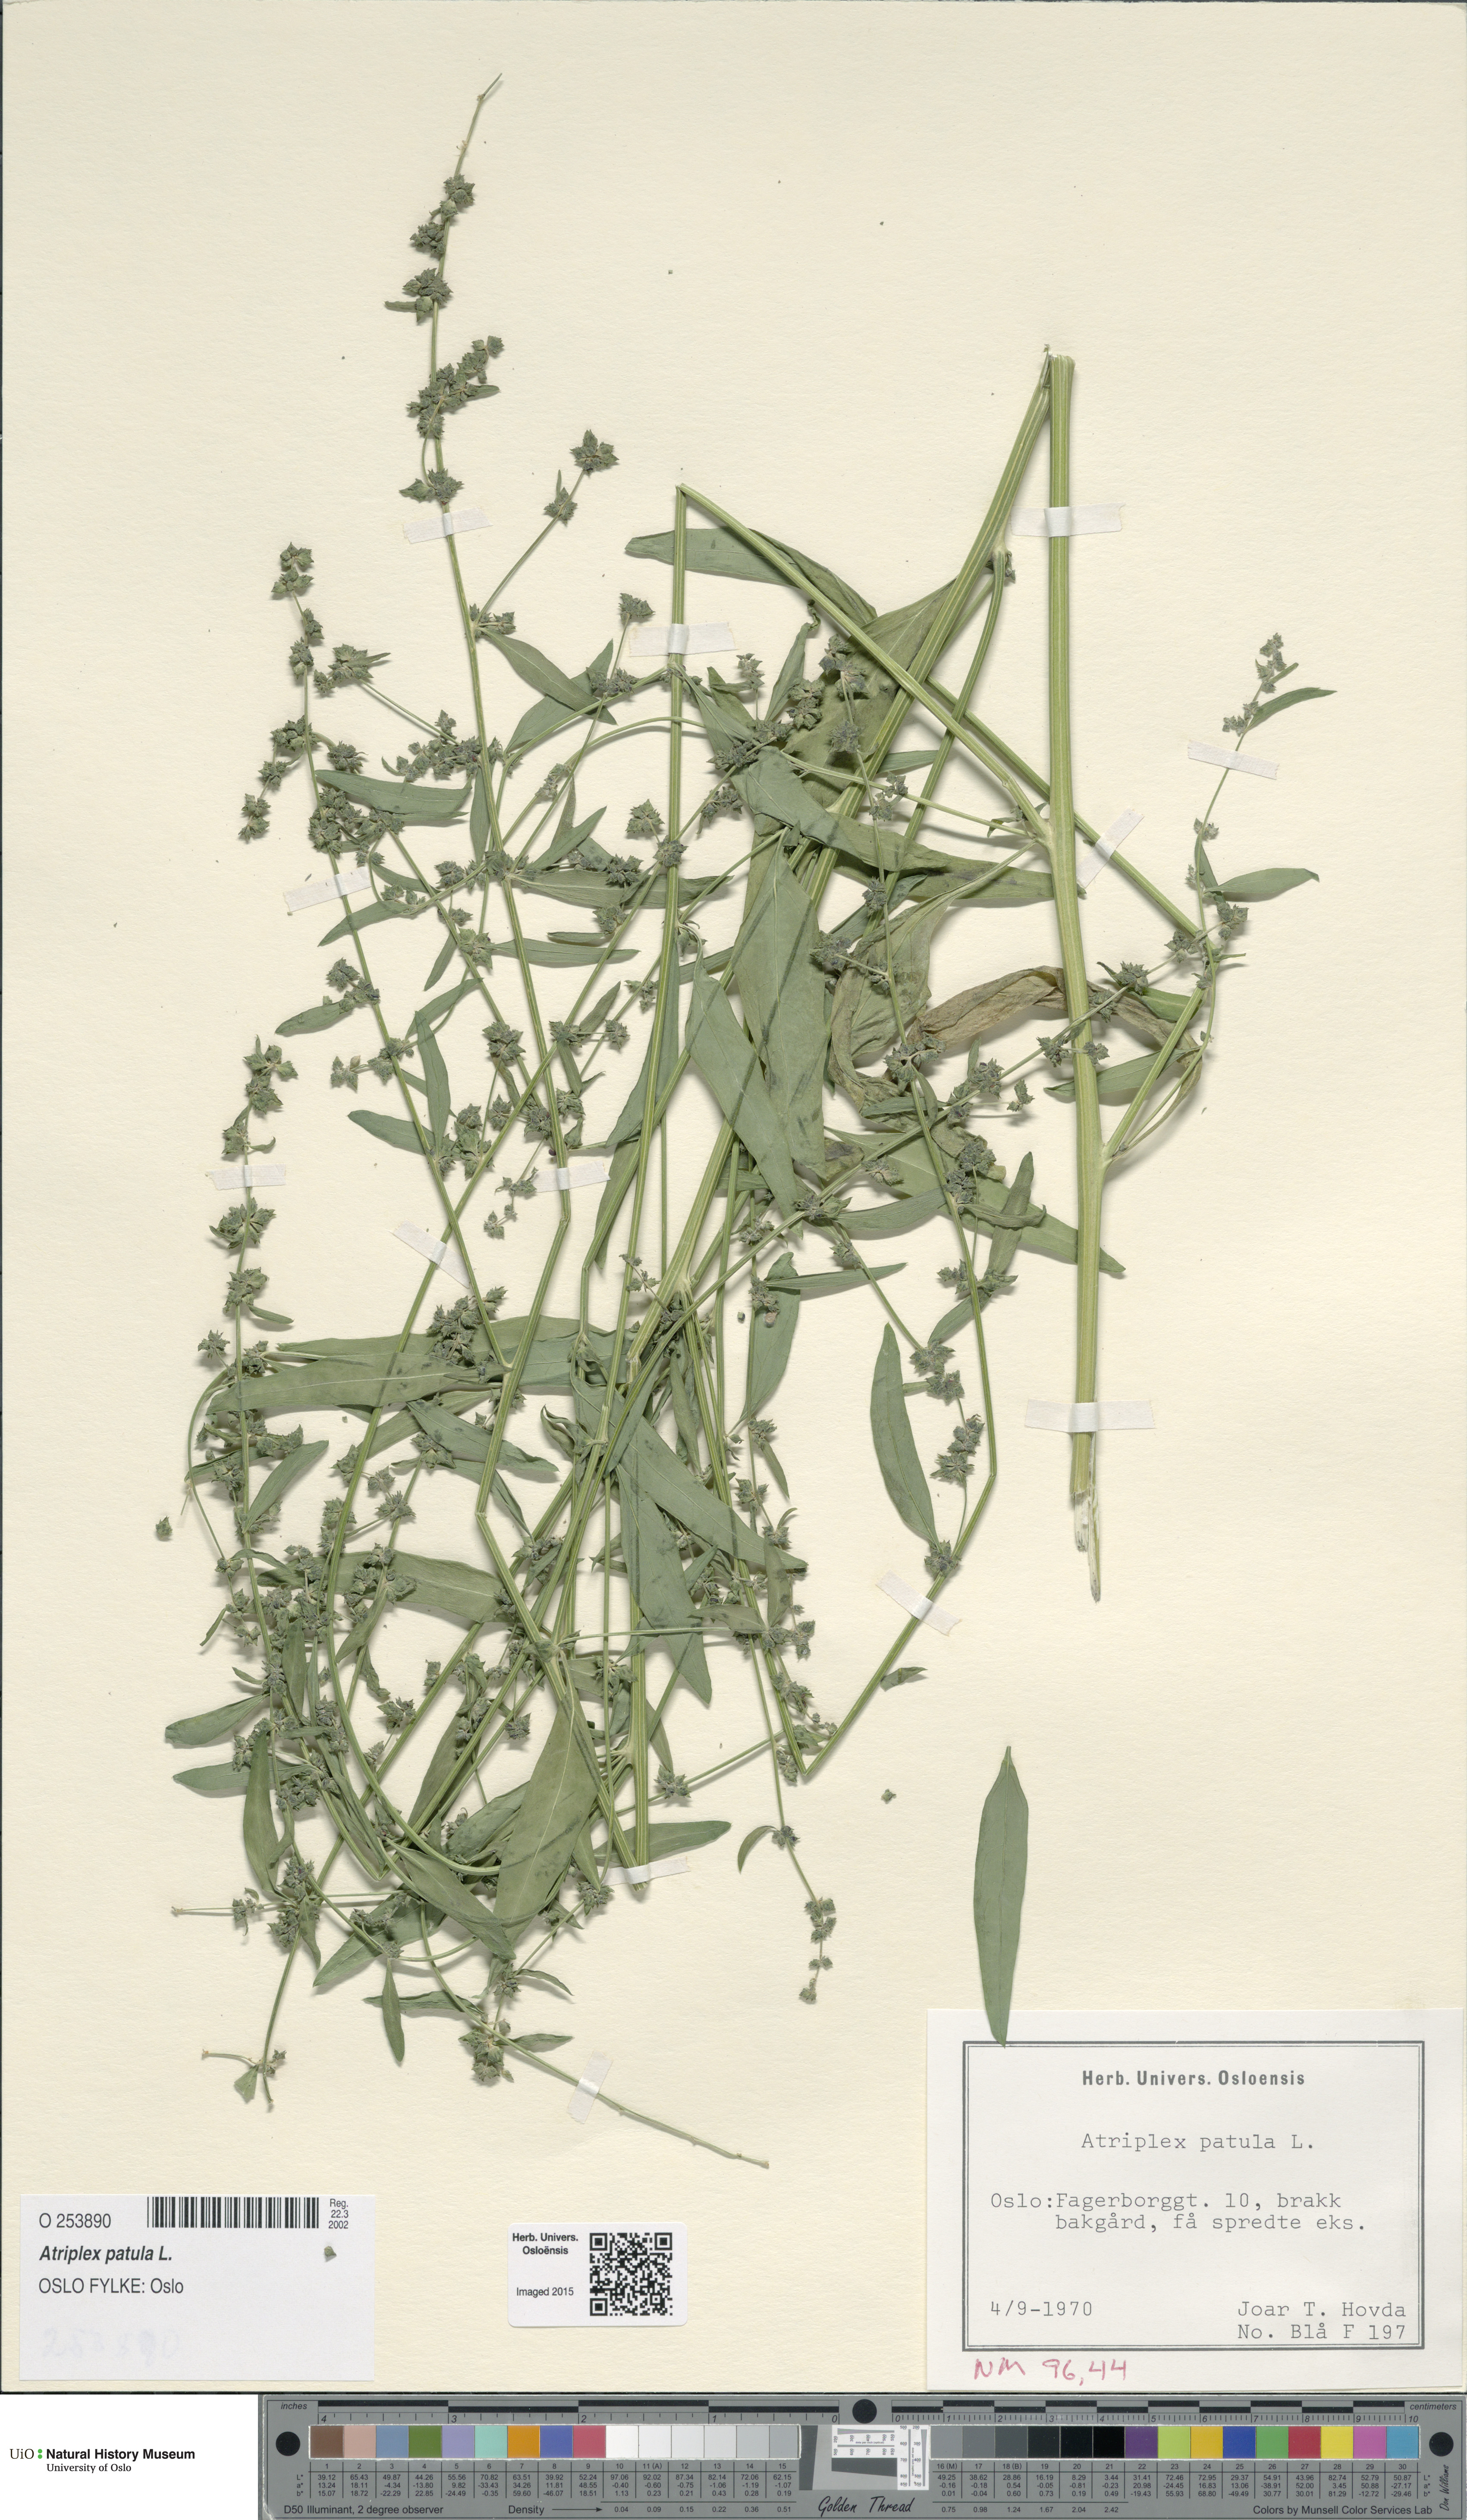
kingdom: Plantae
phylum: Tracheophyta
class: Magnoliopsida
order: Caryophyllales
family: Amaranthaceae
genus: Atriplex
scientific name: Atriplex patula
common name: Common orache
